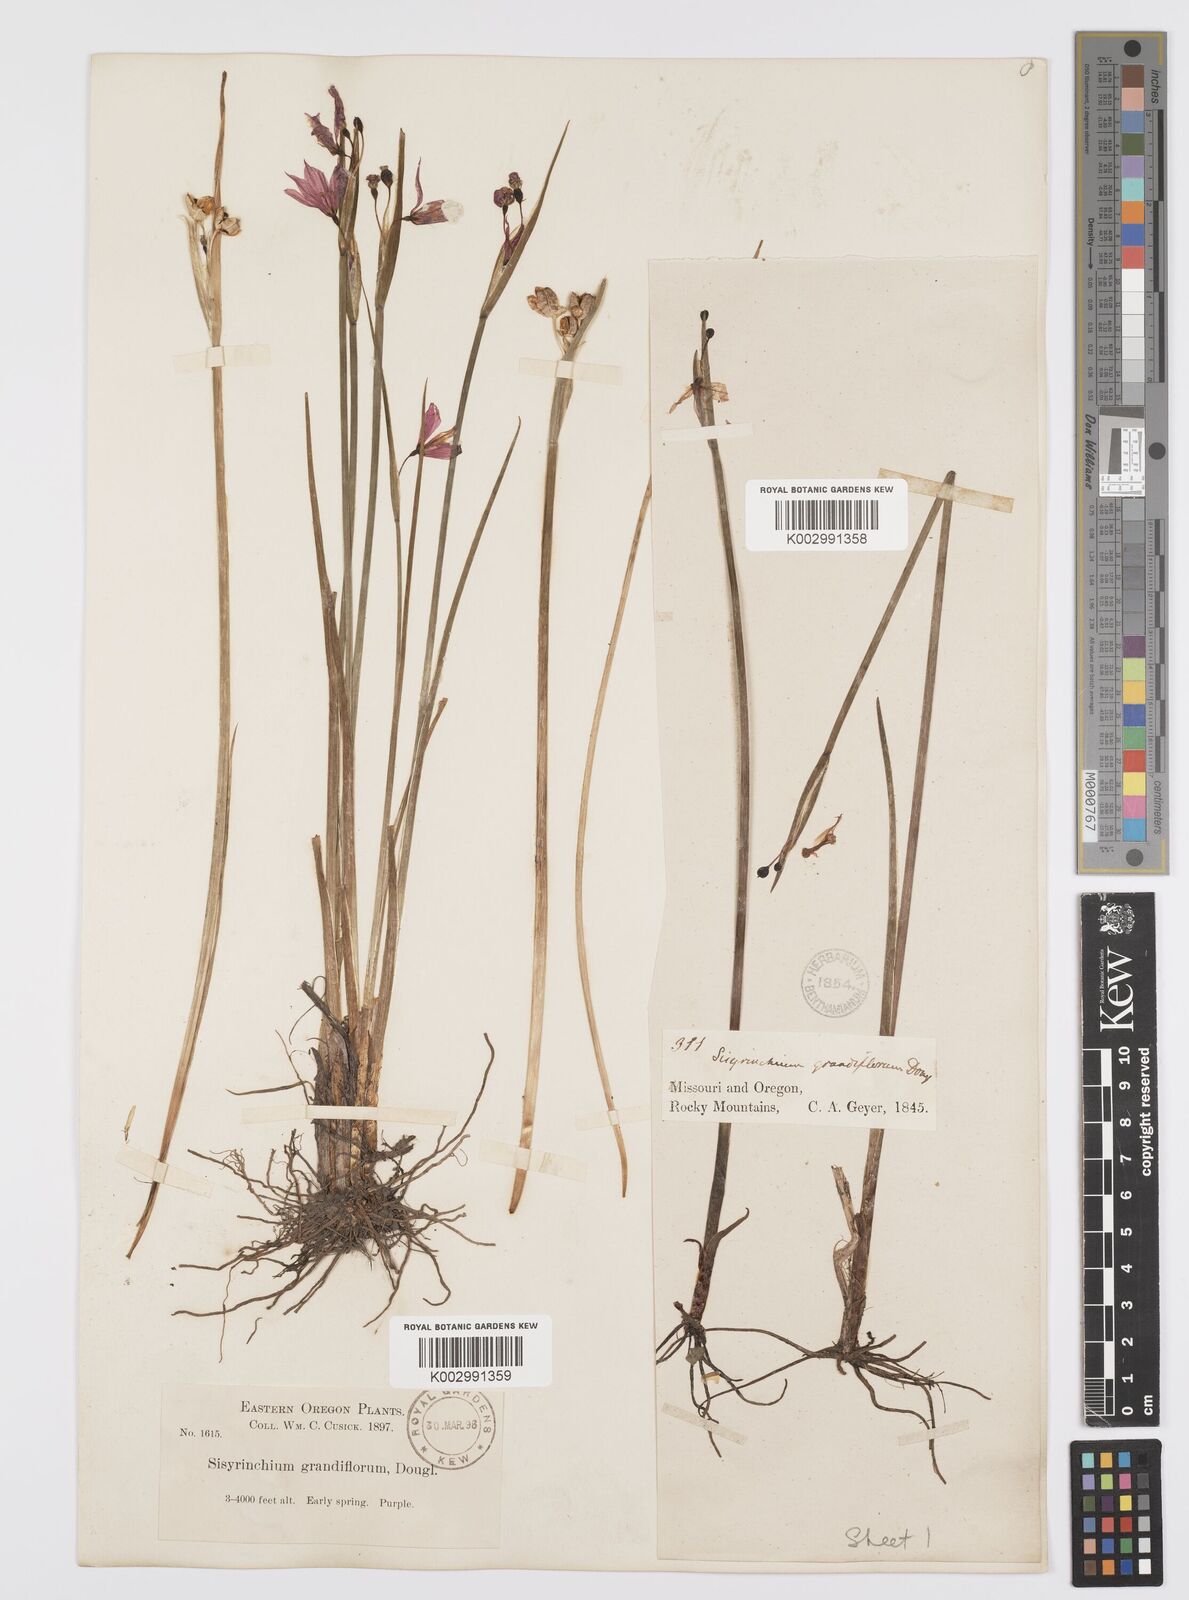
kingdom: Plantae
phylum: Tracheophyta
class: Liliopsida
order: Asparagales
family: Iridaceae
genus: Olsynium
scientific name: Olsynium douglasii
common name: Douglas' grasswidow
